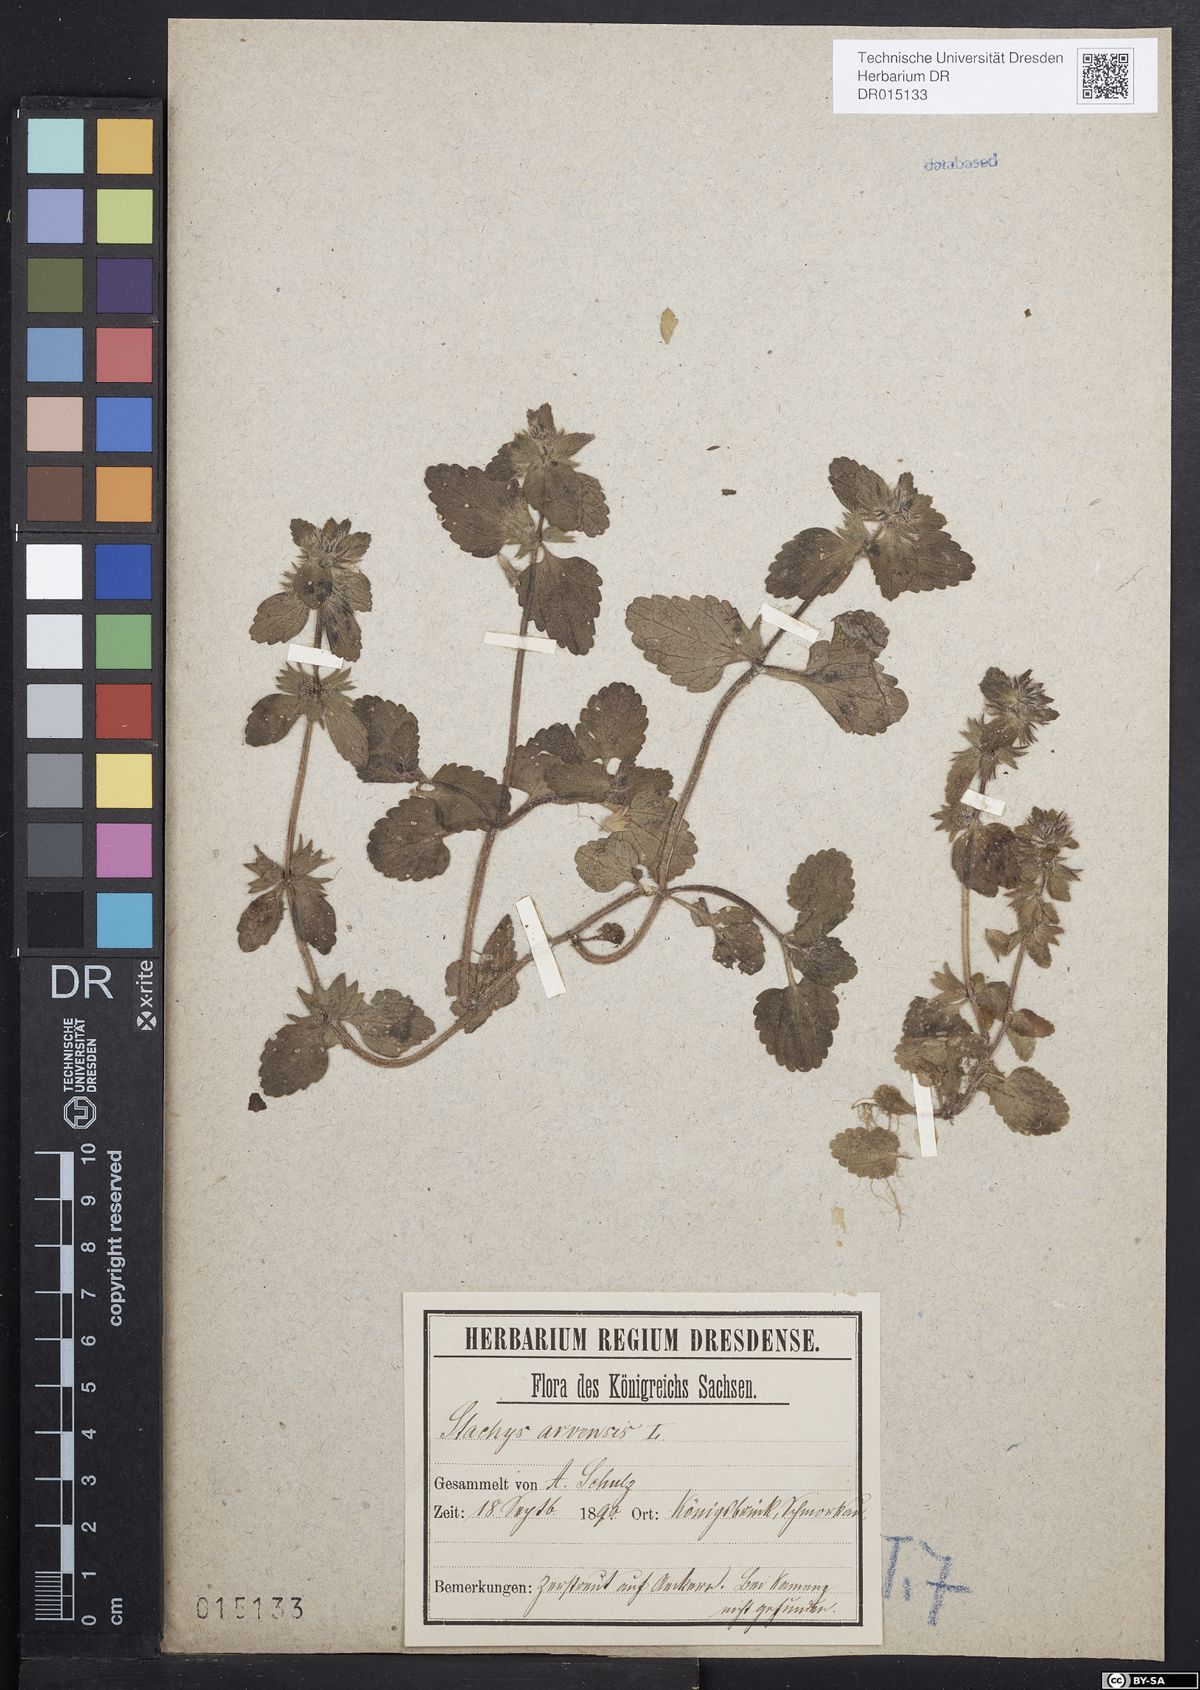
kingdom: Plantae
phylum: Tracheophyta
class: Magnoliopsida
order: Lamiales
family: Lamiaceae
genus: Stachys
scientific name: Stachys arvensis
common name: Field woundwort
